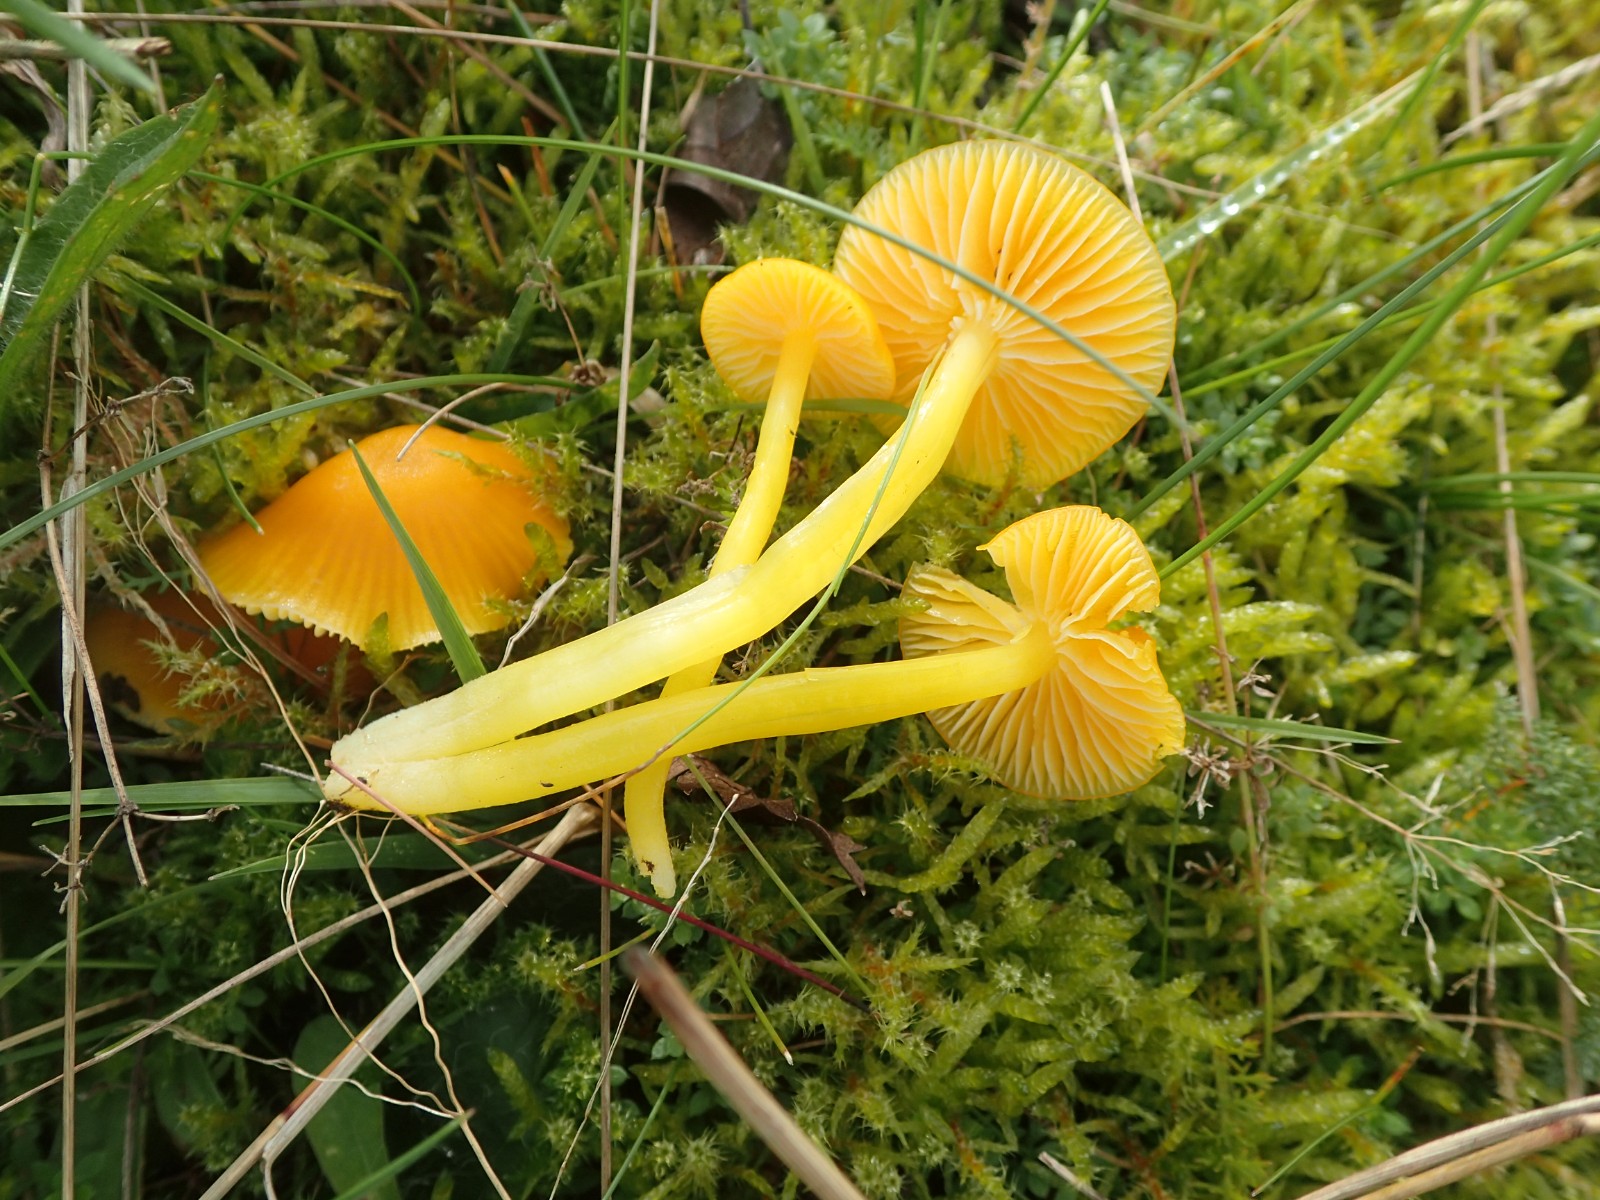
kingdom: Fungi
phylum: Basidiomycota
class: Agaricomycetes
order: Agaricales
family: Hygrophoraceae
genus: Hygrocybe
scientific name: Hygrocybe ceracea
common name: voksgul vokshat
